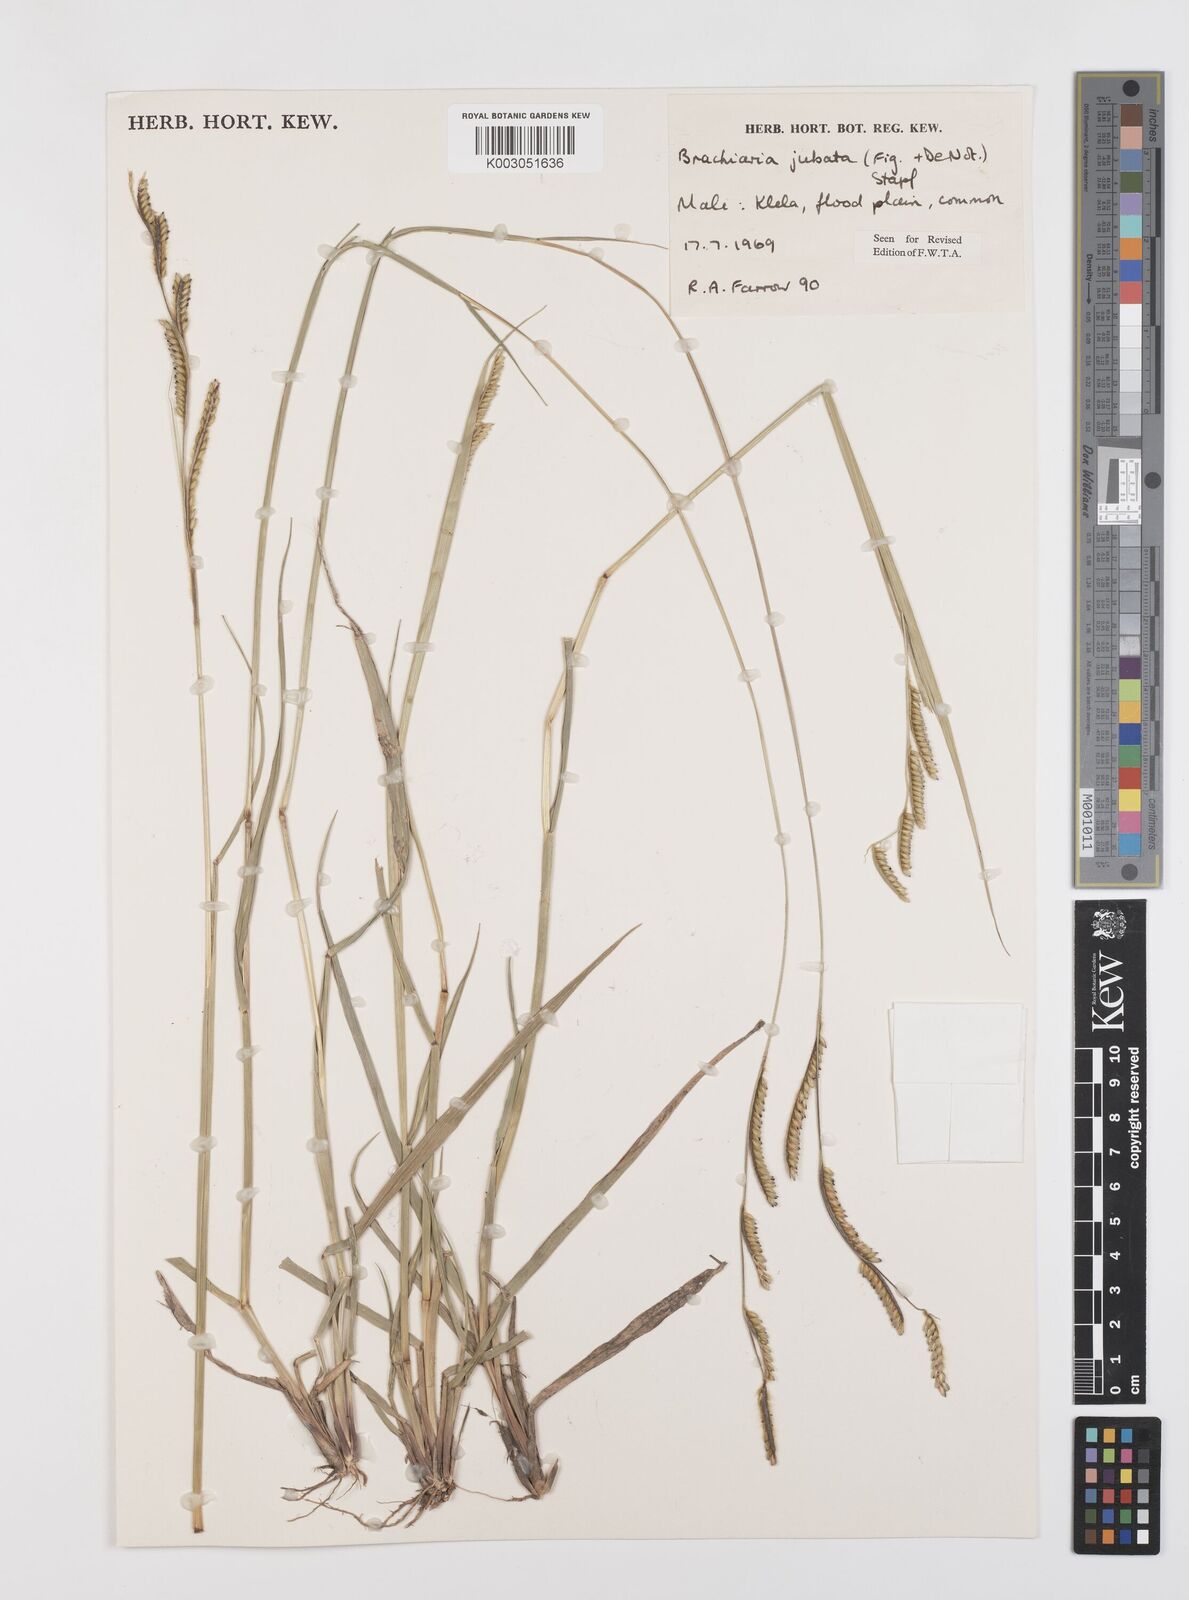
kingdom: Plantae
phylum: Tracheophyta
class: Liliopsida
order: Poales
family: Poaceae
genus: Urochloa
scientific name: Urochloa jubata
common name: Buffalograss
